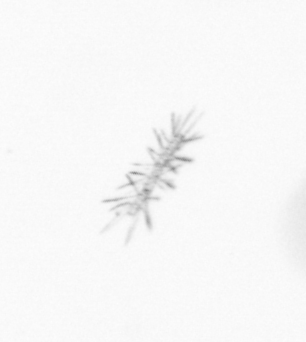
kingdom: Chromista
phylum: Ochrophyta
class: Bacillariophyceae
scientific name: Bacillariophyceae
